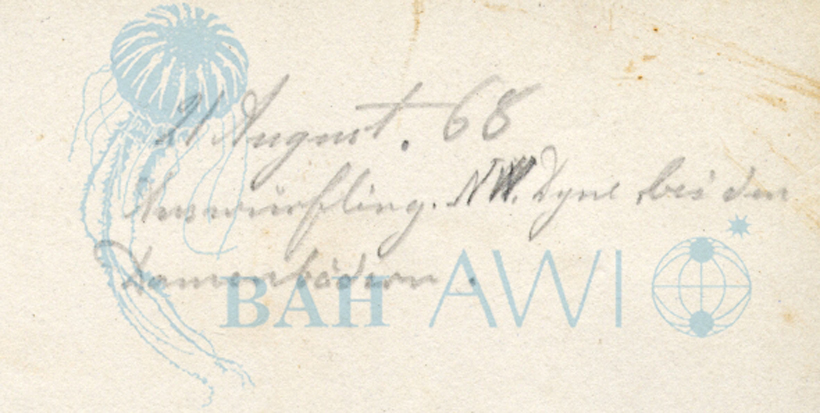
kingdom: Chromista
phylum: Ochrophyta
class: Phaeophyceae
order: Sporochnales
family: Sporochnaceae
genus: Sporochnus
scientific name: Sporochnus pedunculatus
